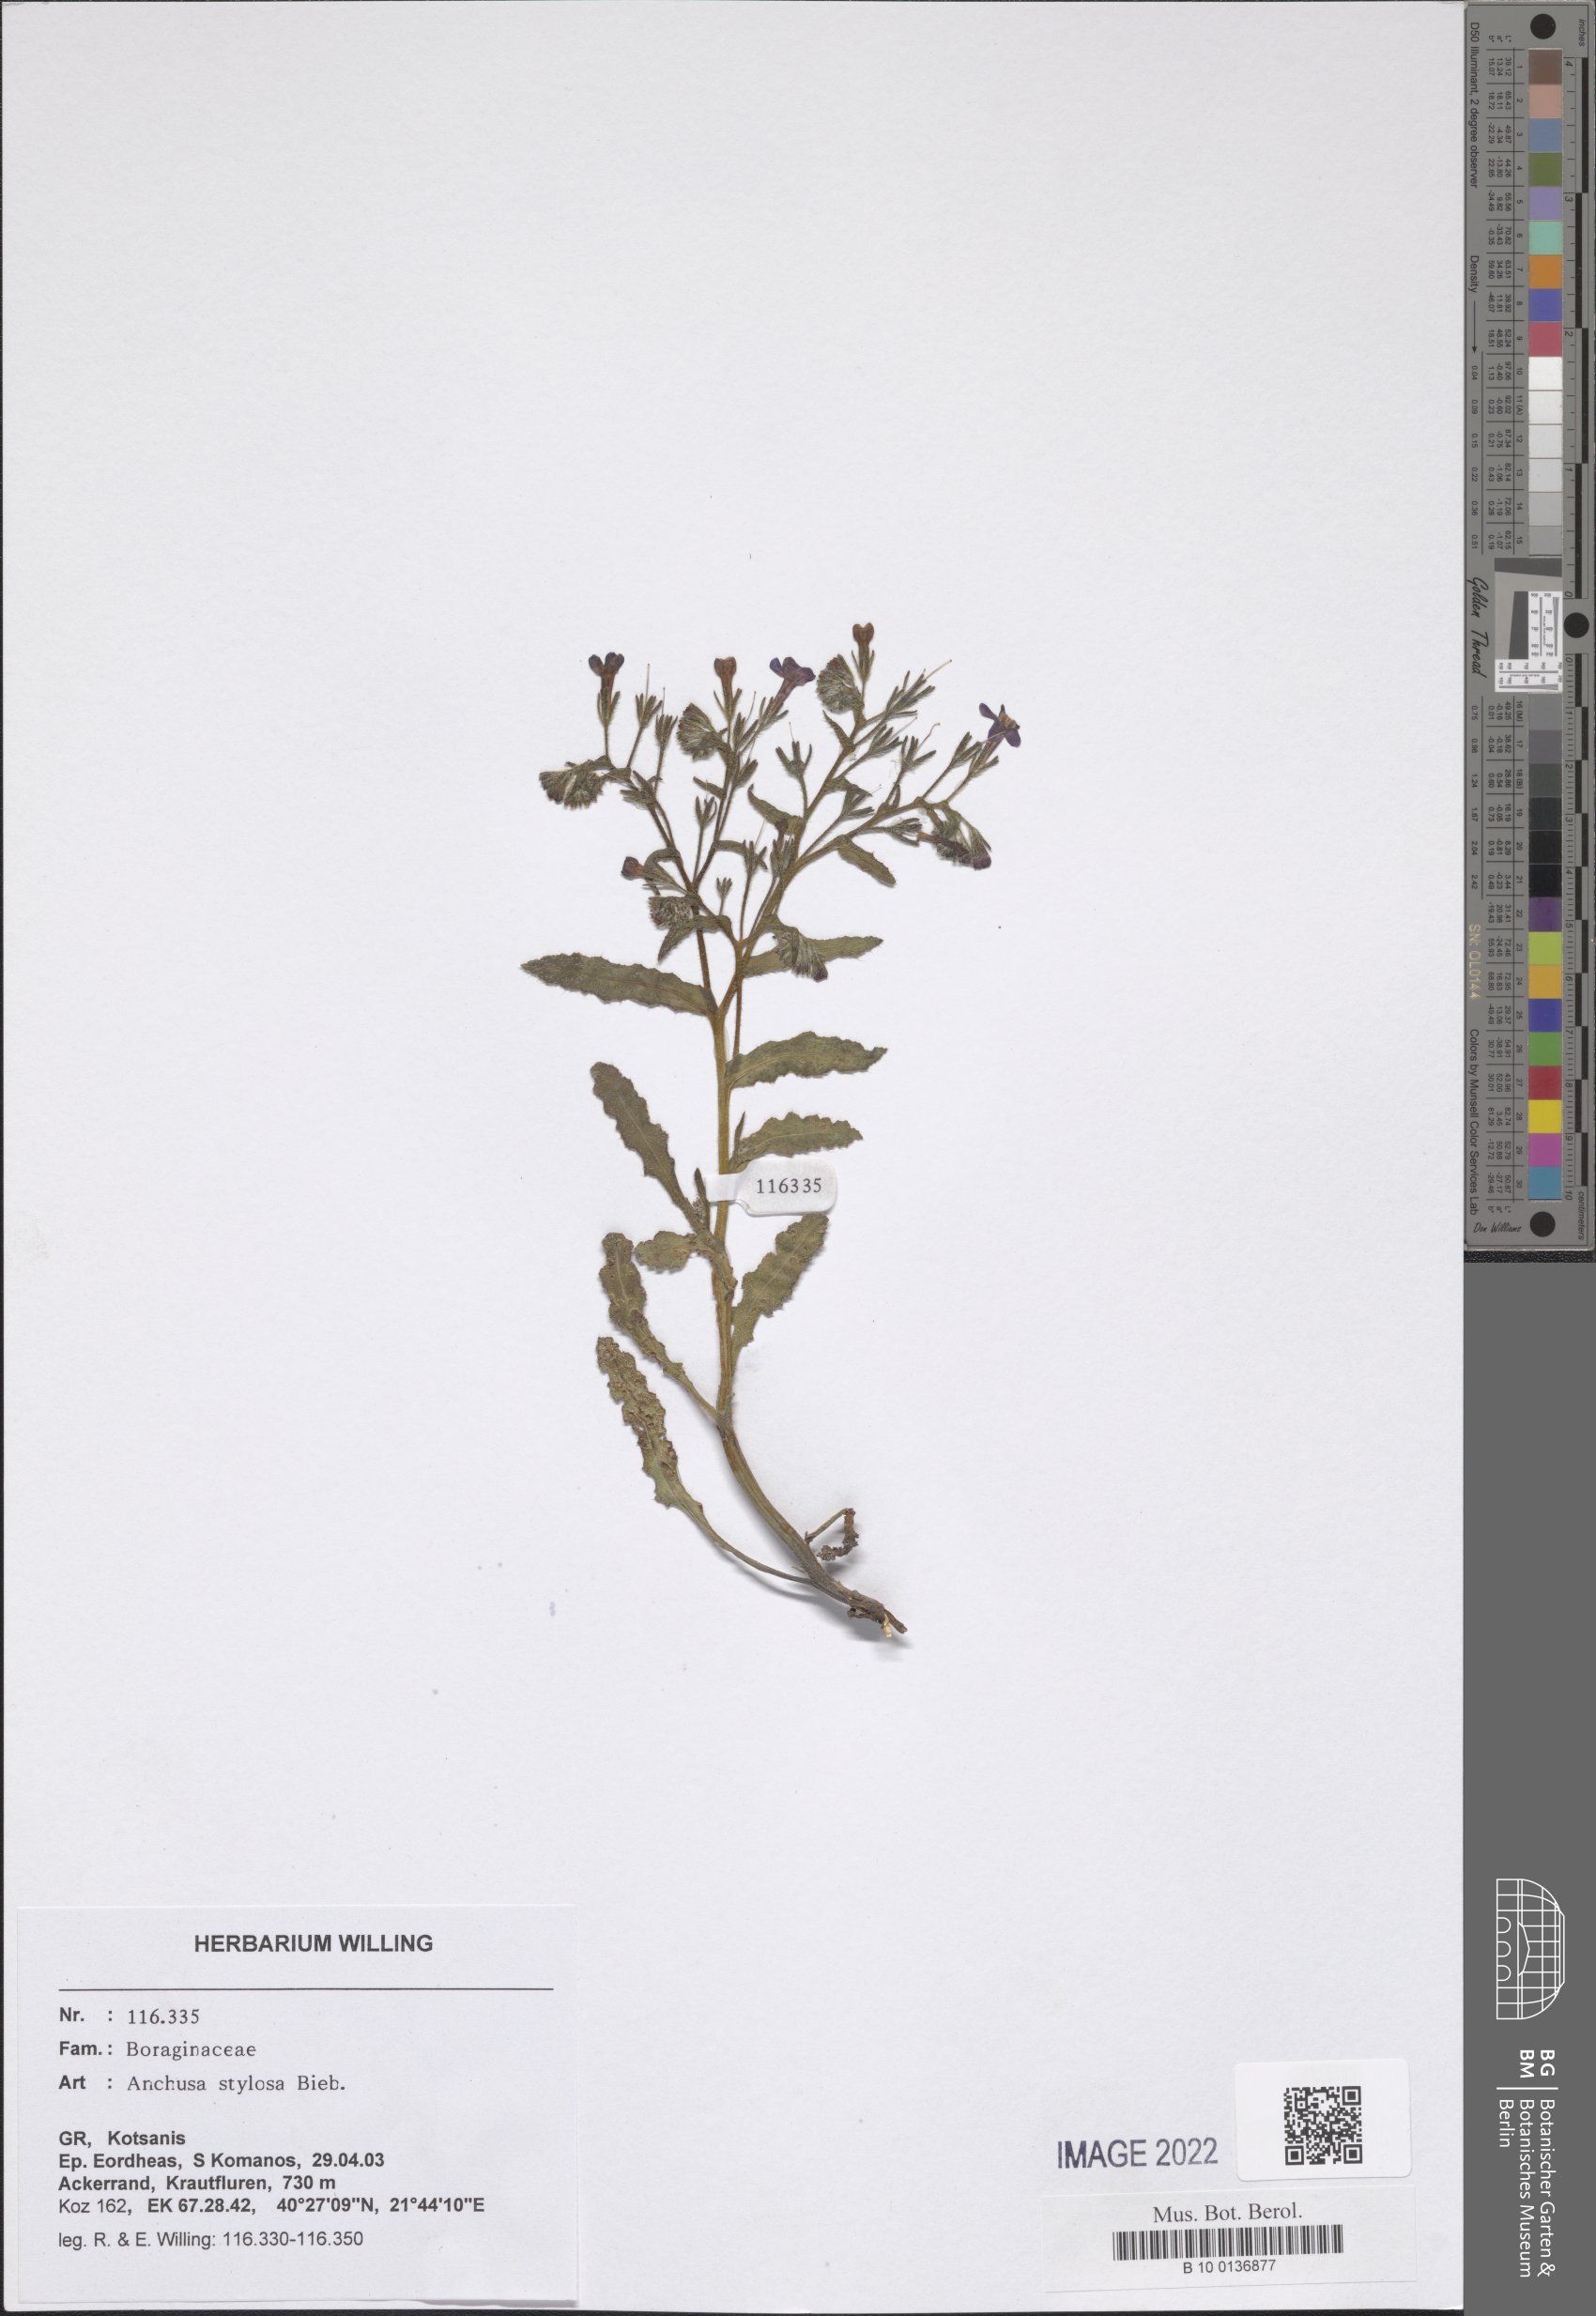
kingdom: Plantae
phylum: Tracheophyta
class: Magnoliopsida
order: Boraginales
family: Boraginaceae
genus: Anchusa
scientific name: Anchusa stylosa
